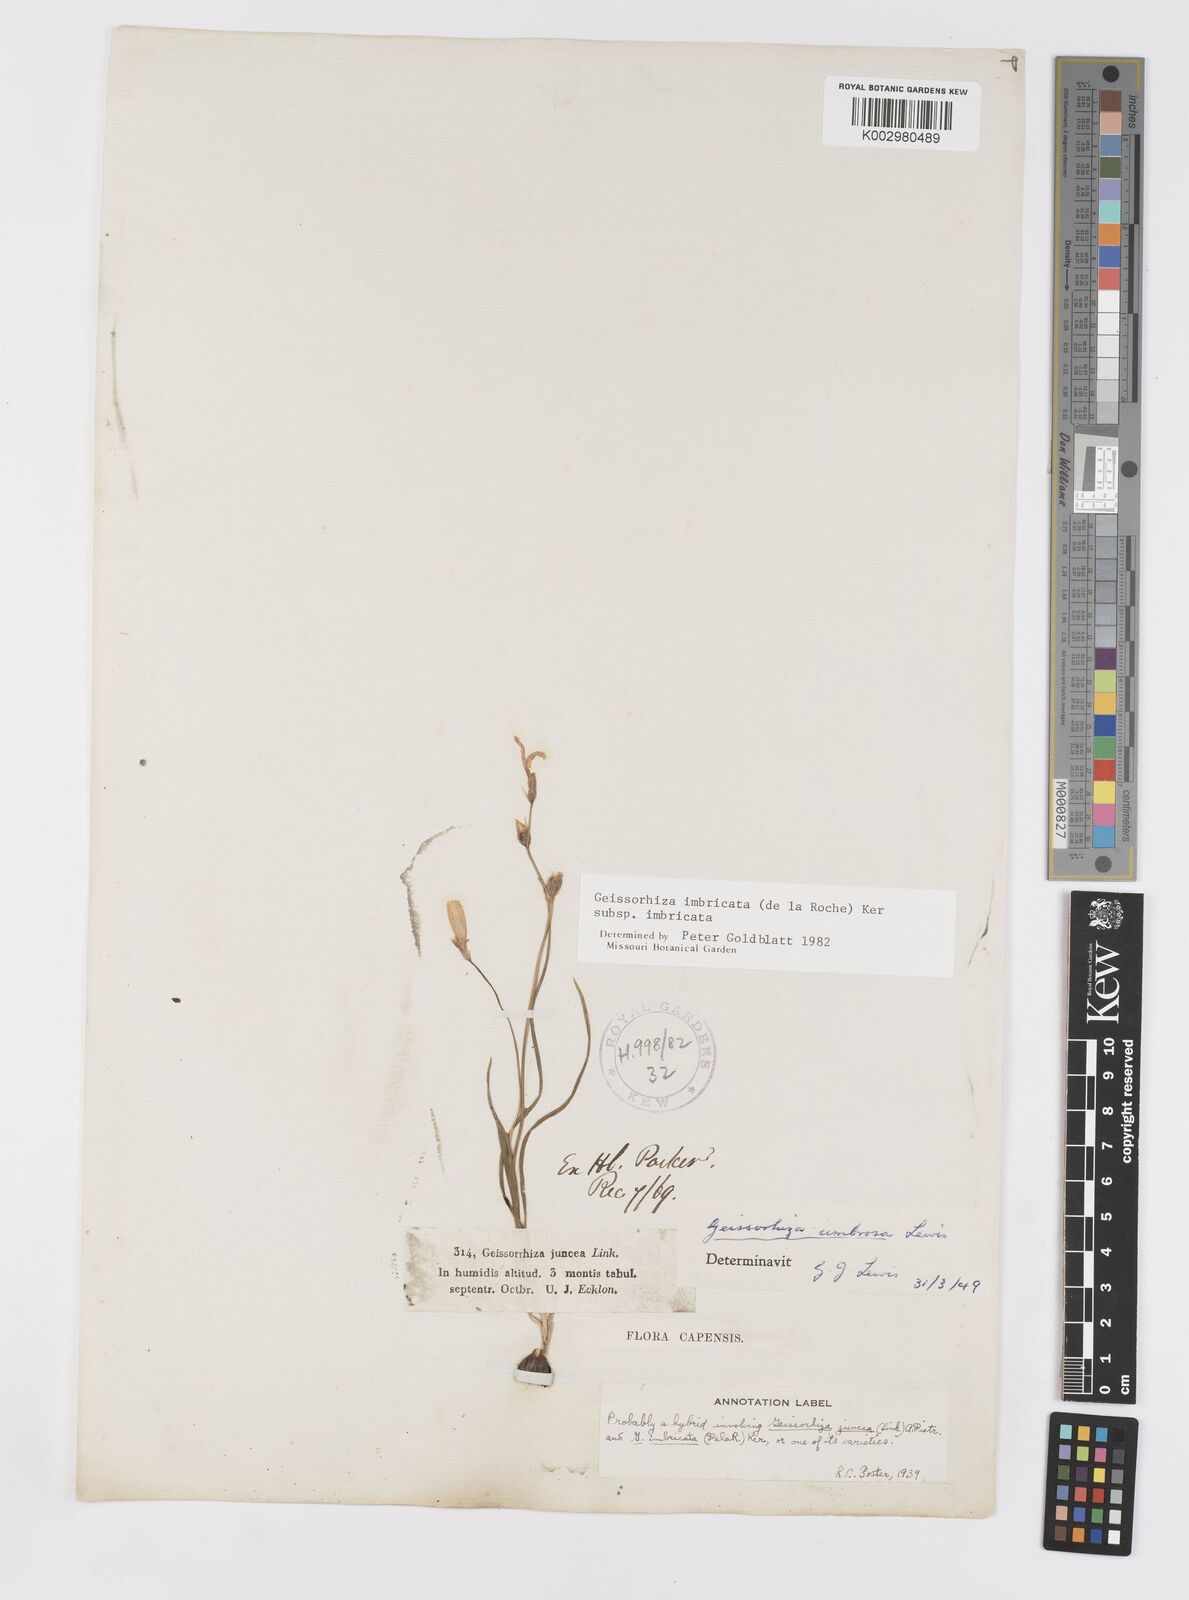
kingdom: Plantae
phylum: Tracheophyta
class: Liliopsida
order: Asparagales
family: Iridaceae
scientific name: Iridaceae
